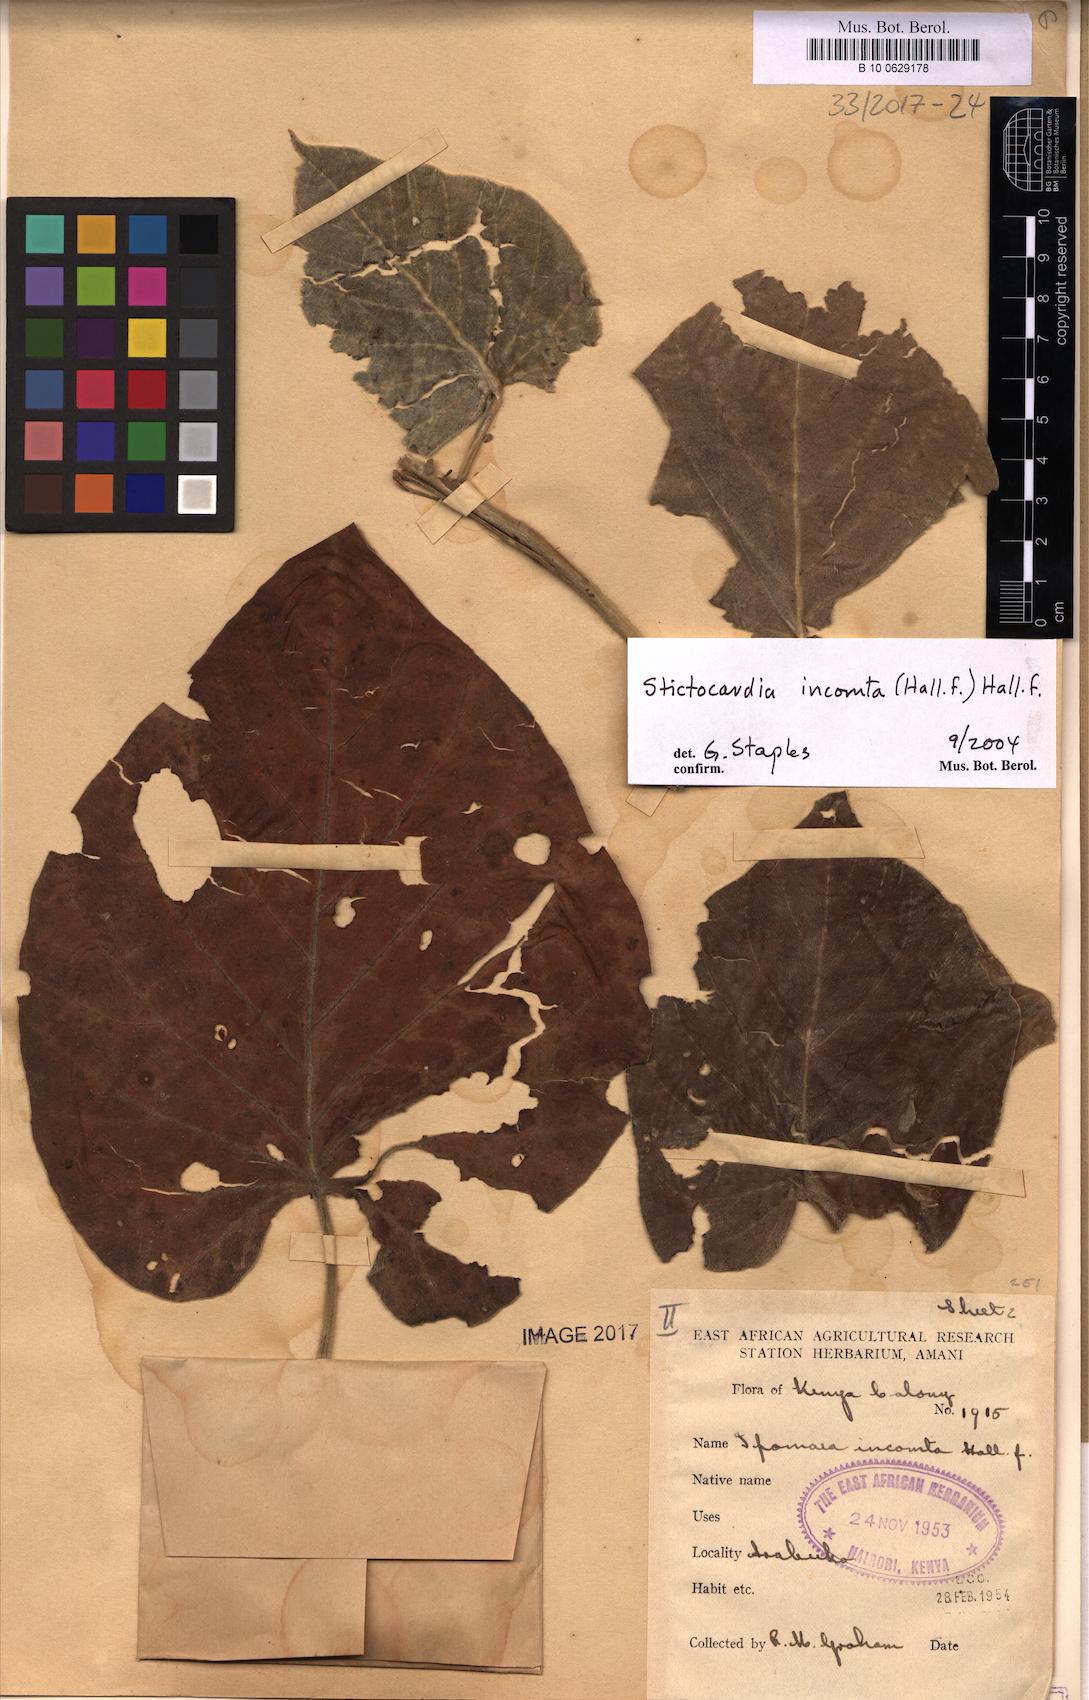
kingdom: Plantae
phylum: Tracheophyta
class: Magnoliopsida
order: Solanales
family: Convolvulaceae
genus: Stictocardia
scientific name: Stictocardia incomta
